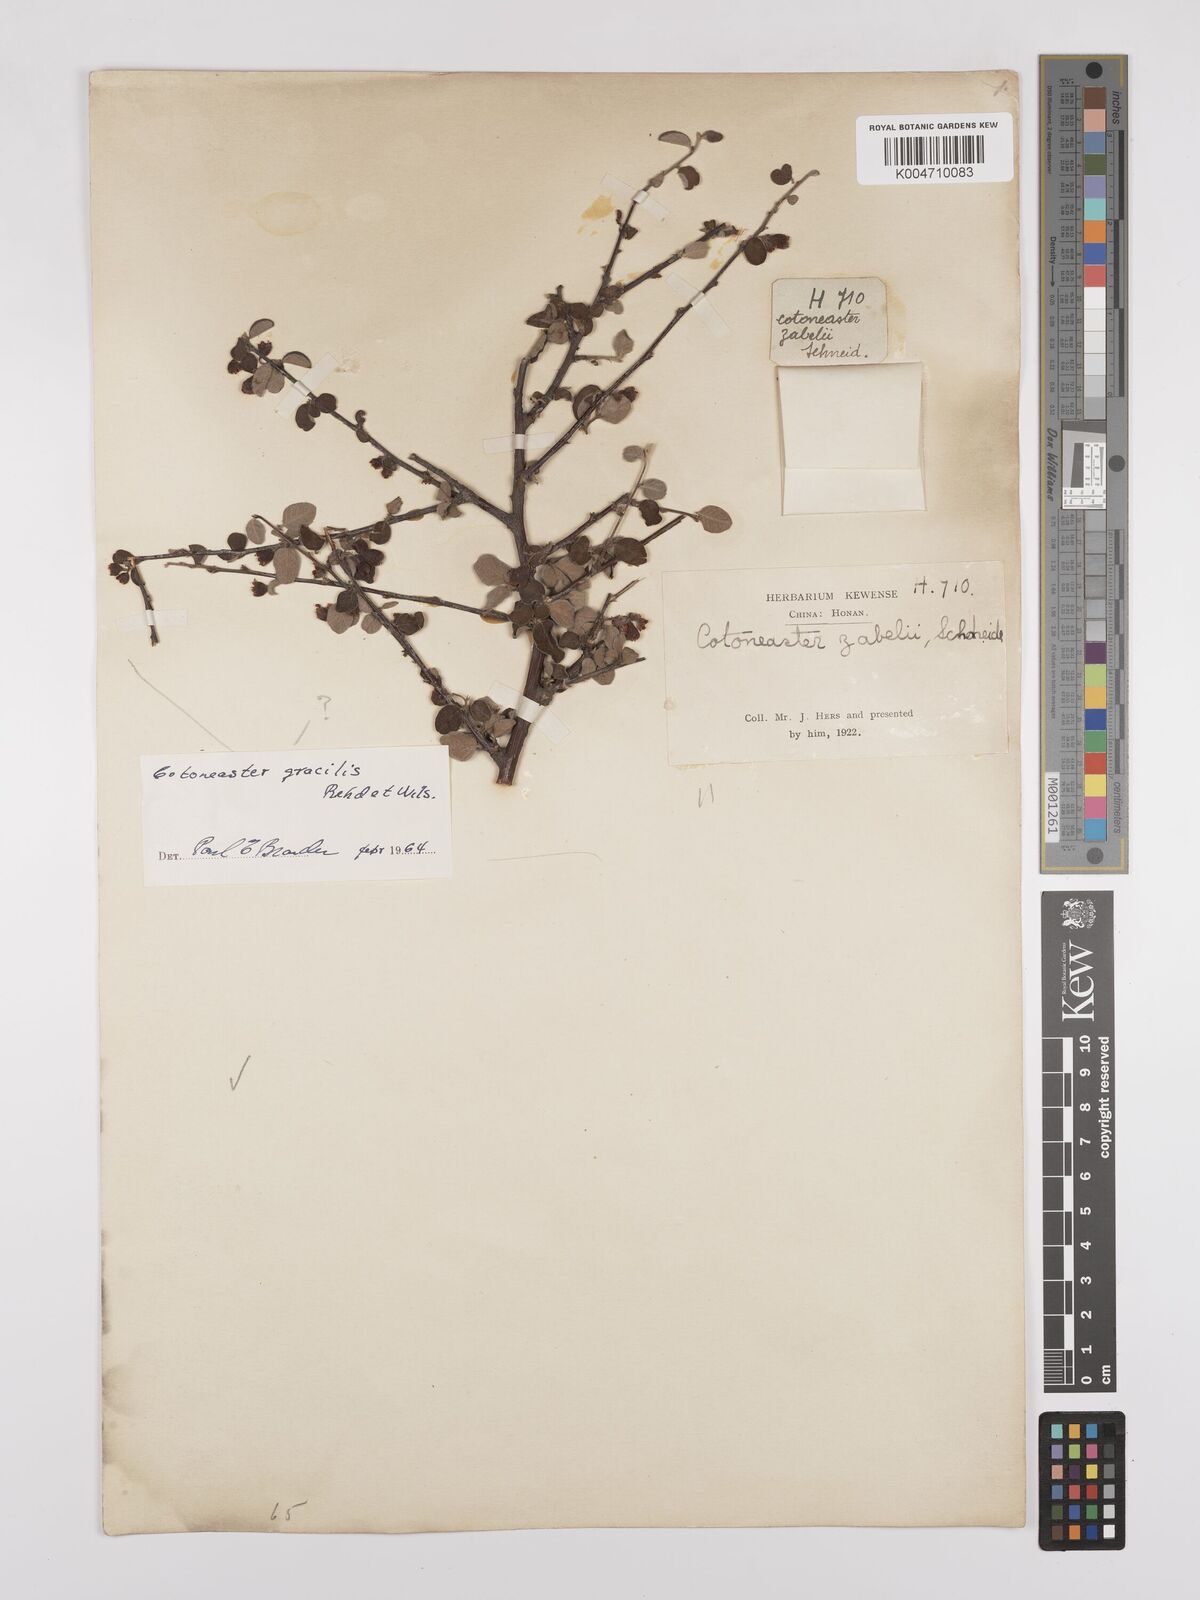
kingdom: Plantae
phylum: Tracheophyta
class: Magnoliopsida
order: Rosales
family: Rosaceae
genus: Cotoneaster
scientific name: Cotoneaster zabelii
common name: Cherryred cotoneaster
